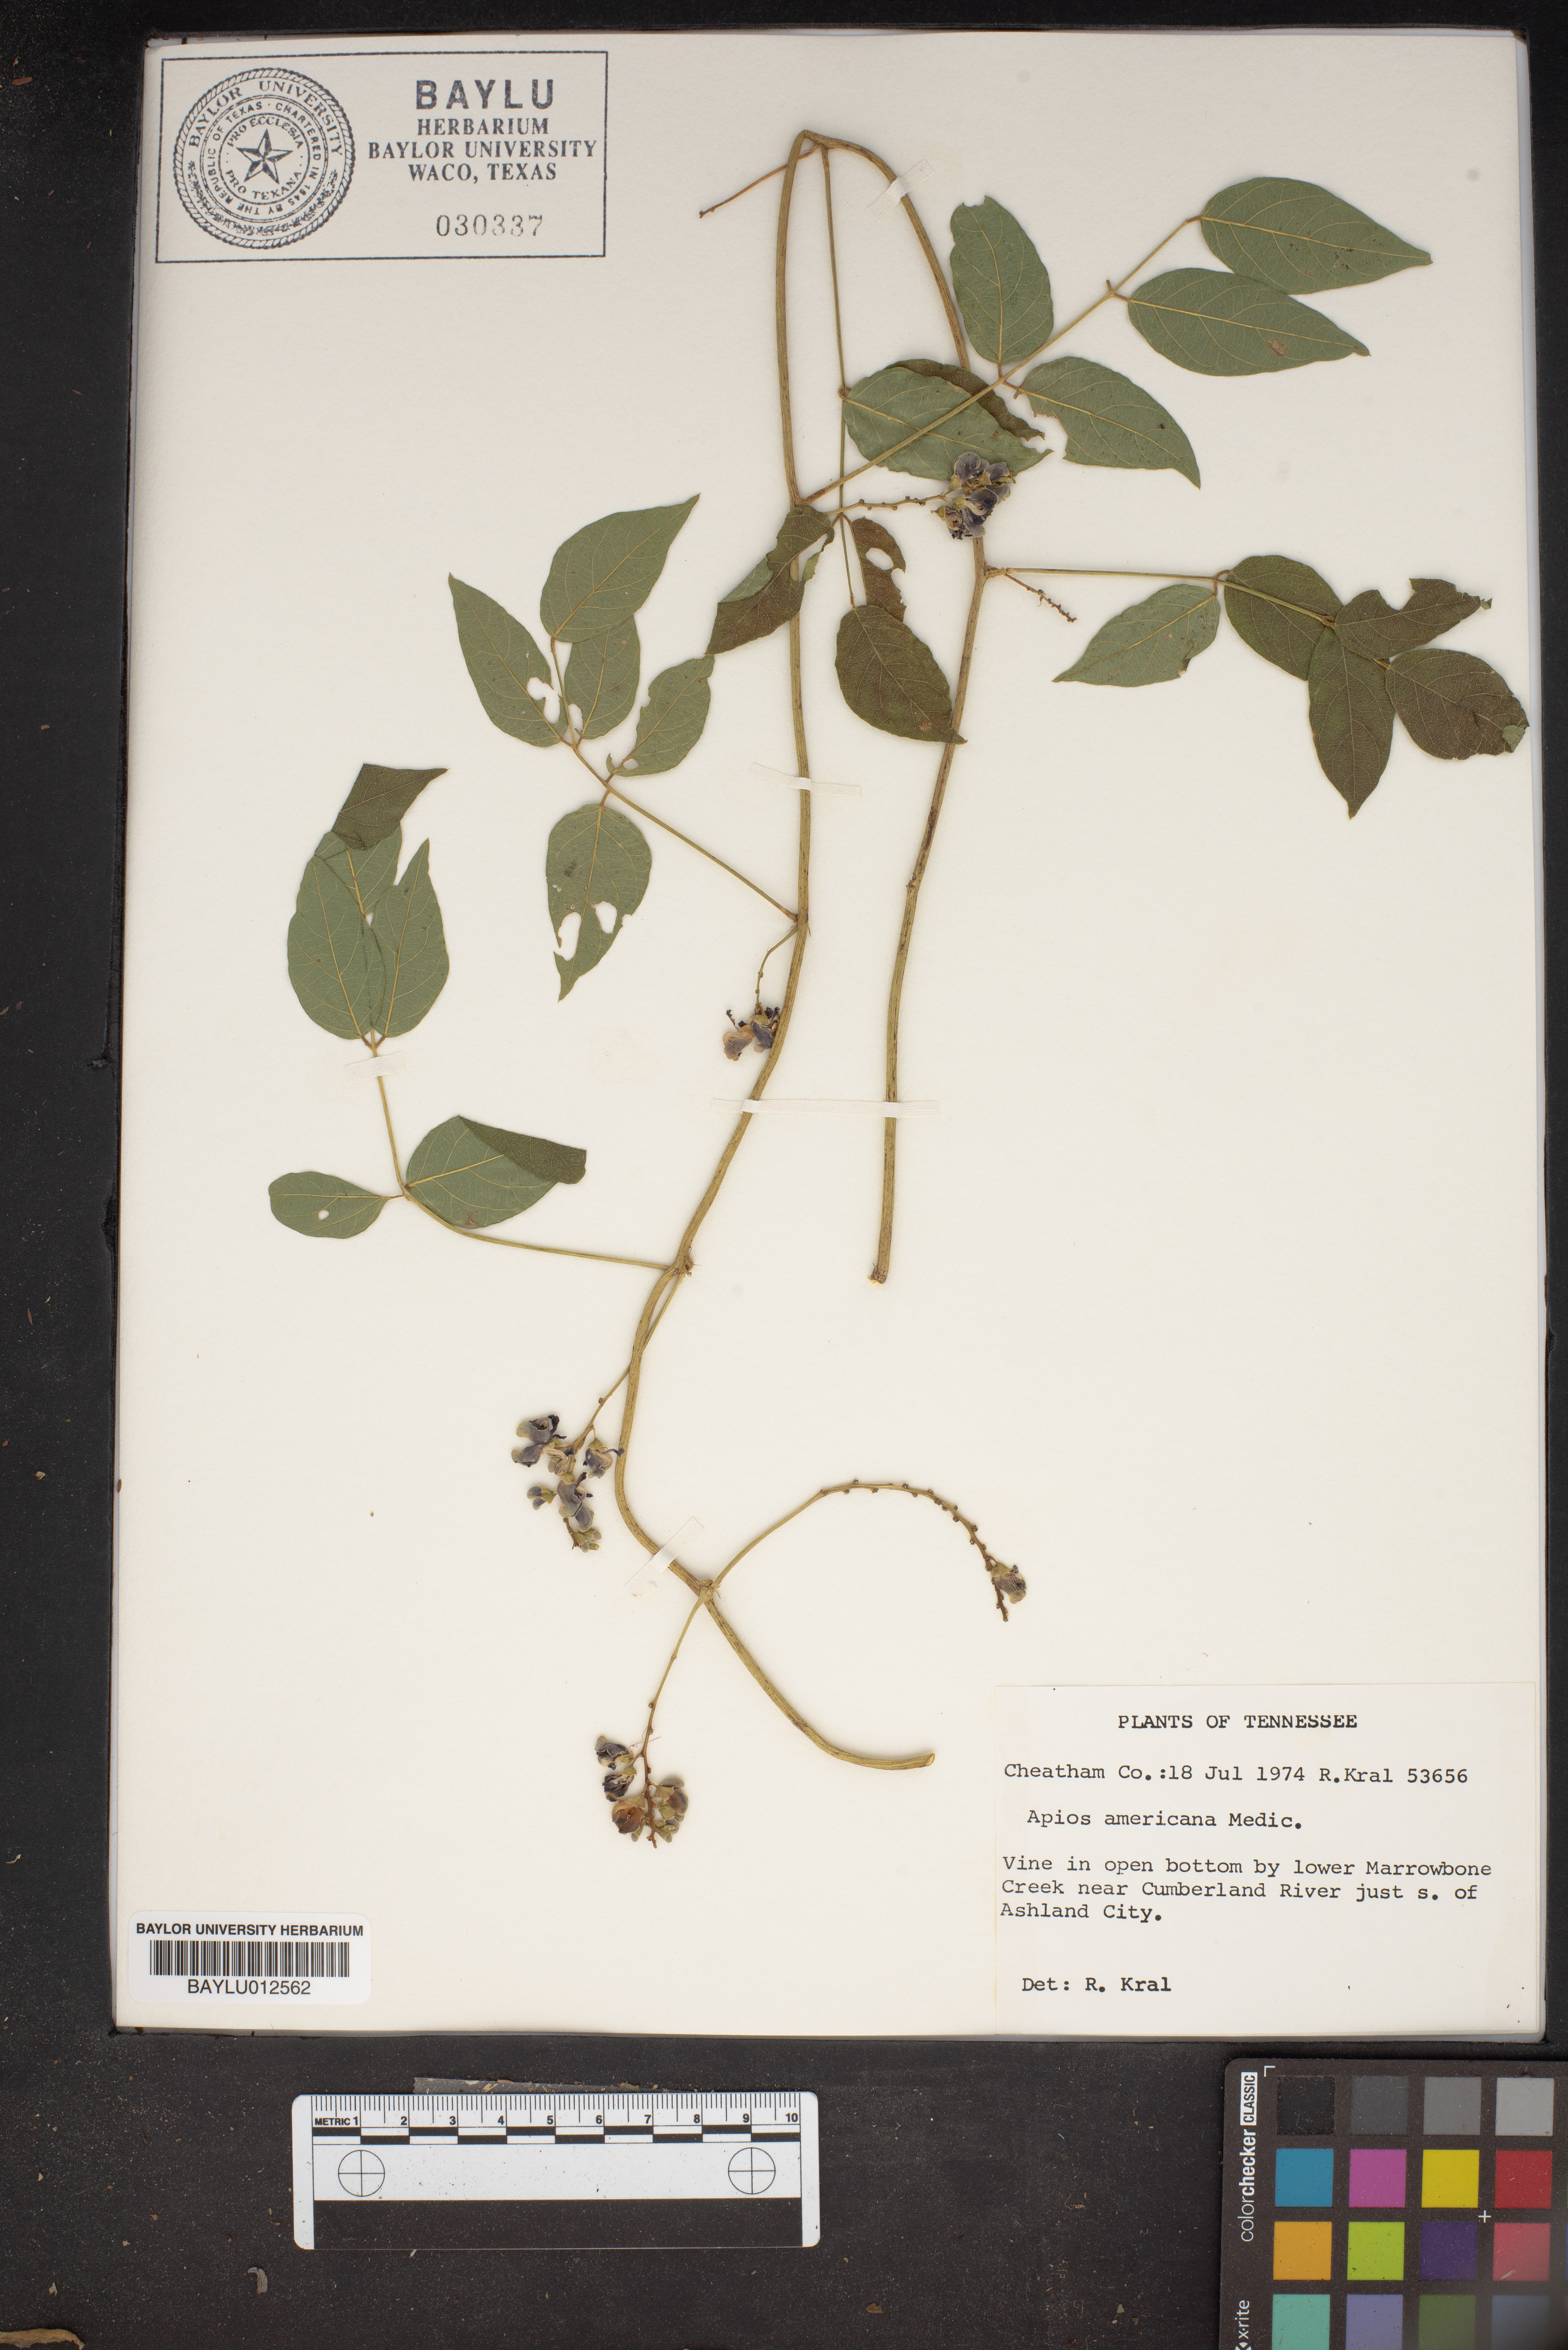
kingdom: Plantae
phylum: Tracheophyta
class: Magnoliopsida
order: Fabales
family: Fabaceae
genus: Apios
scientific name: Apios americana
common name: American potato-bean
